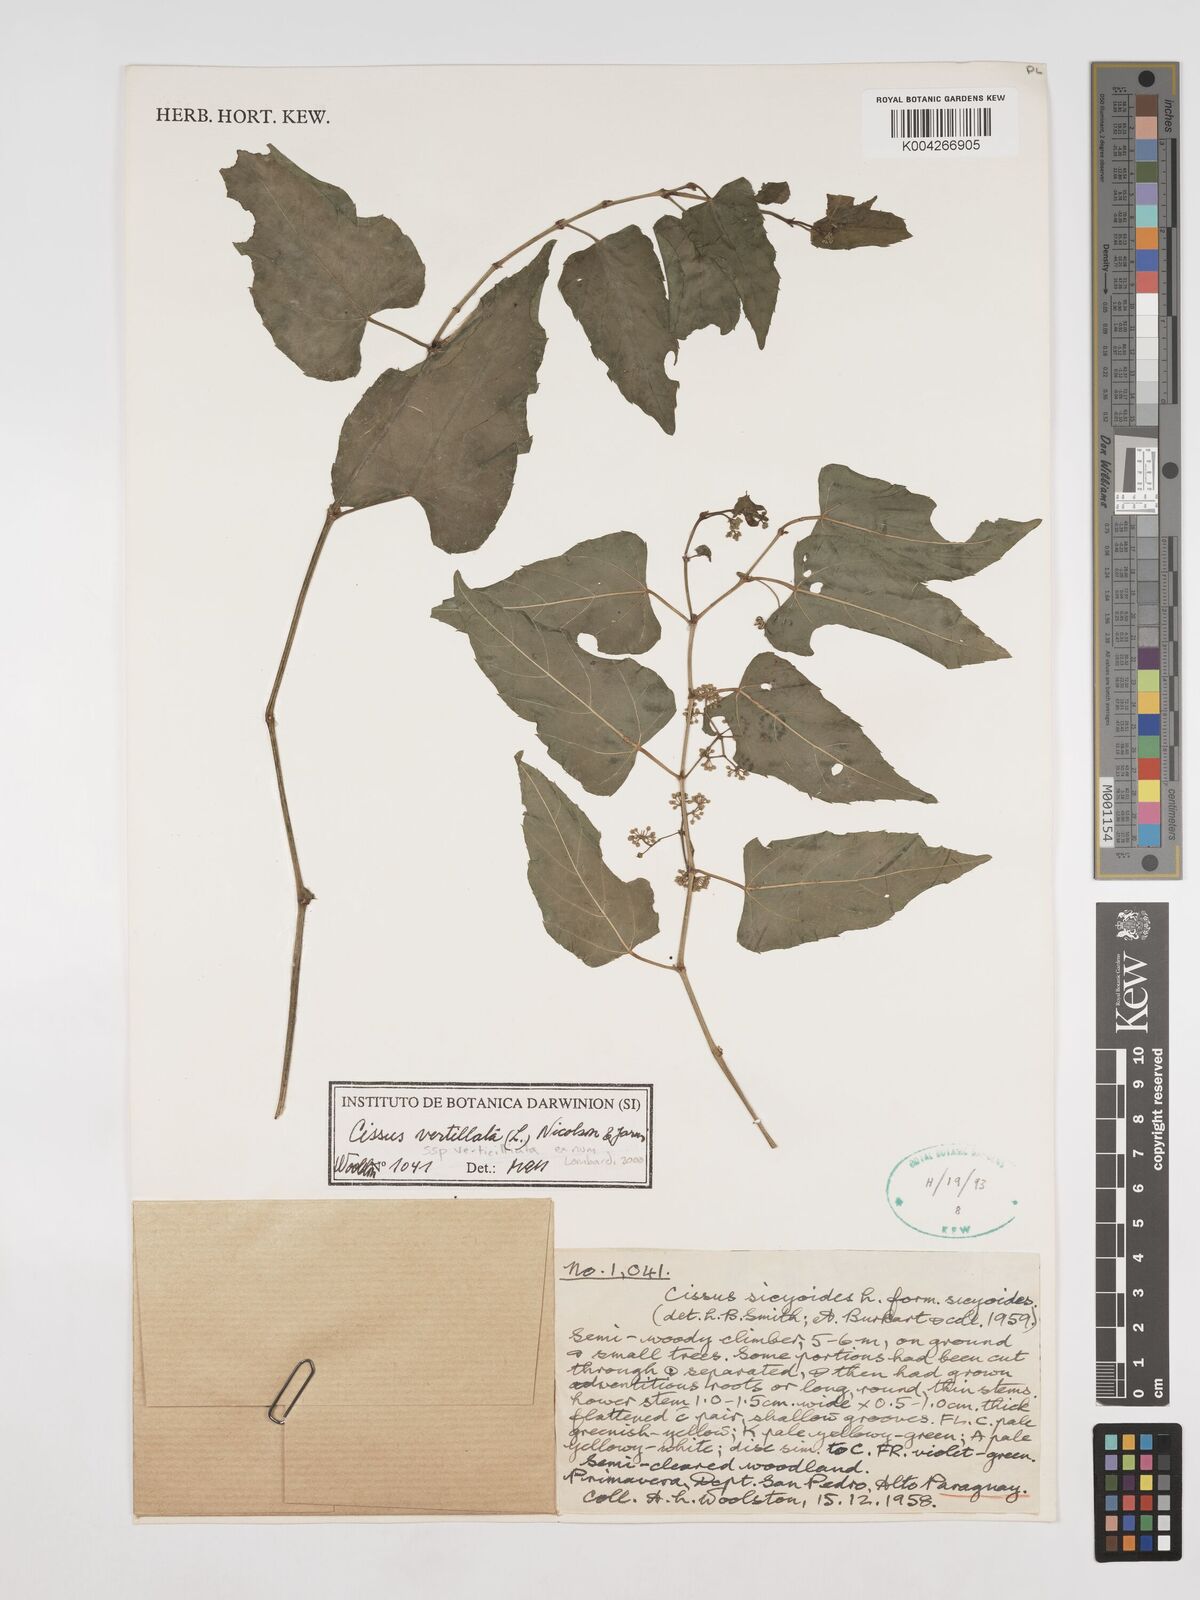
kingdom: Plantae
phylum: Tracheophyta
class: Magnoliopsida
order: Vitales
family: Vitaceae
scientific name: Vitaceae
